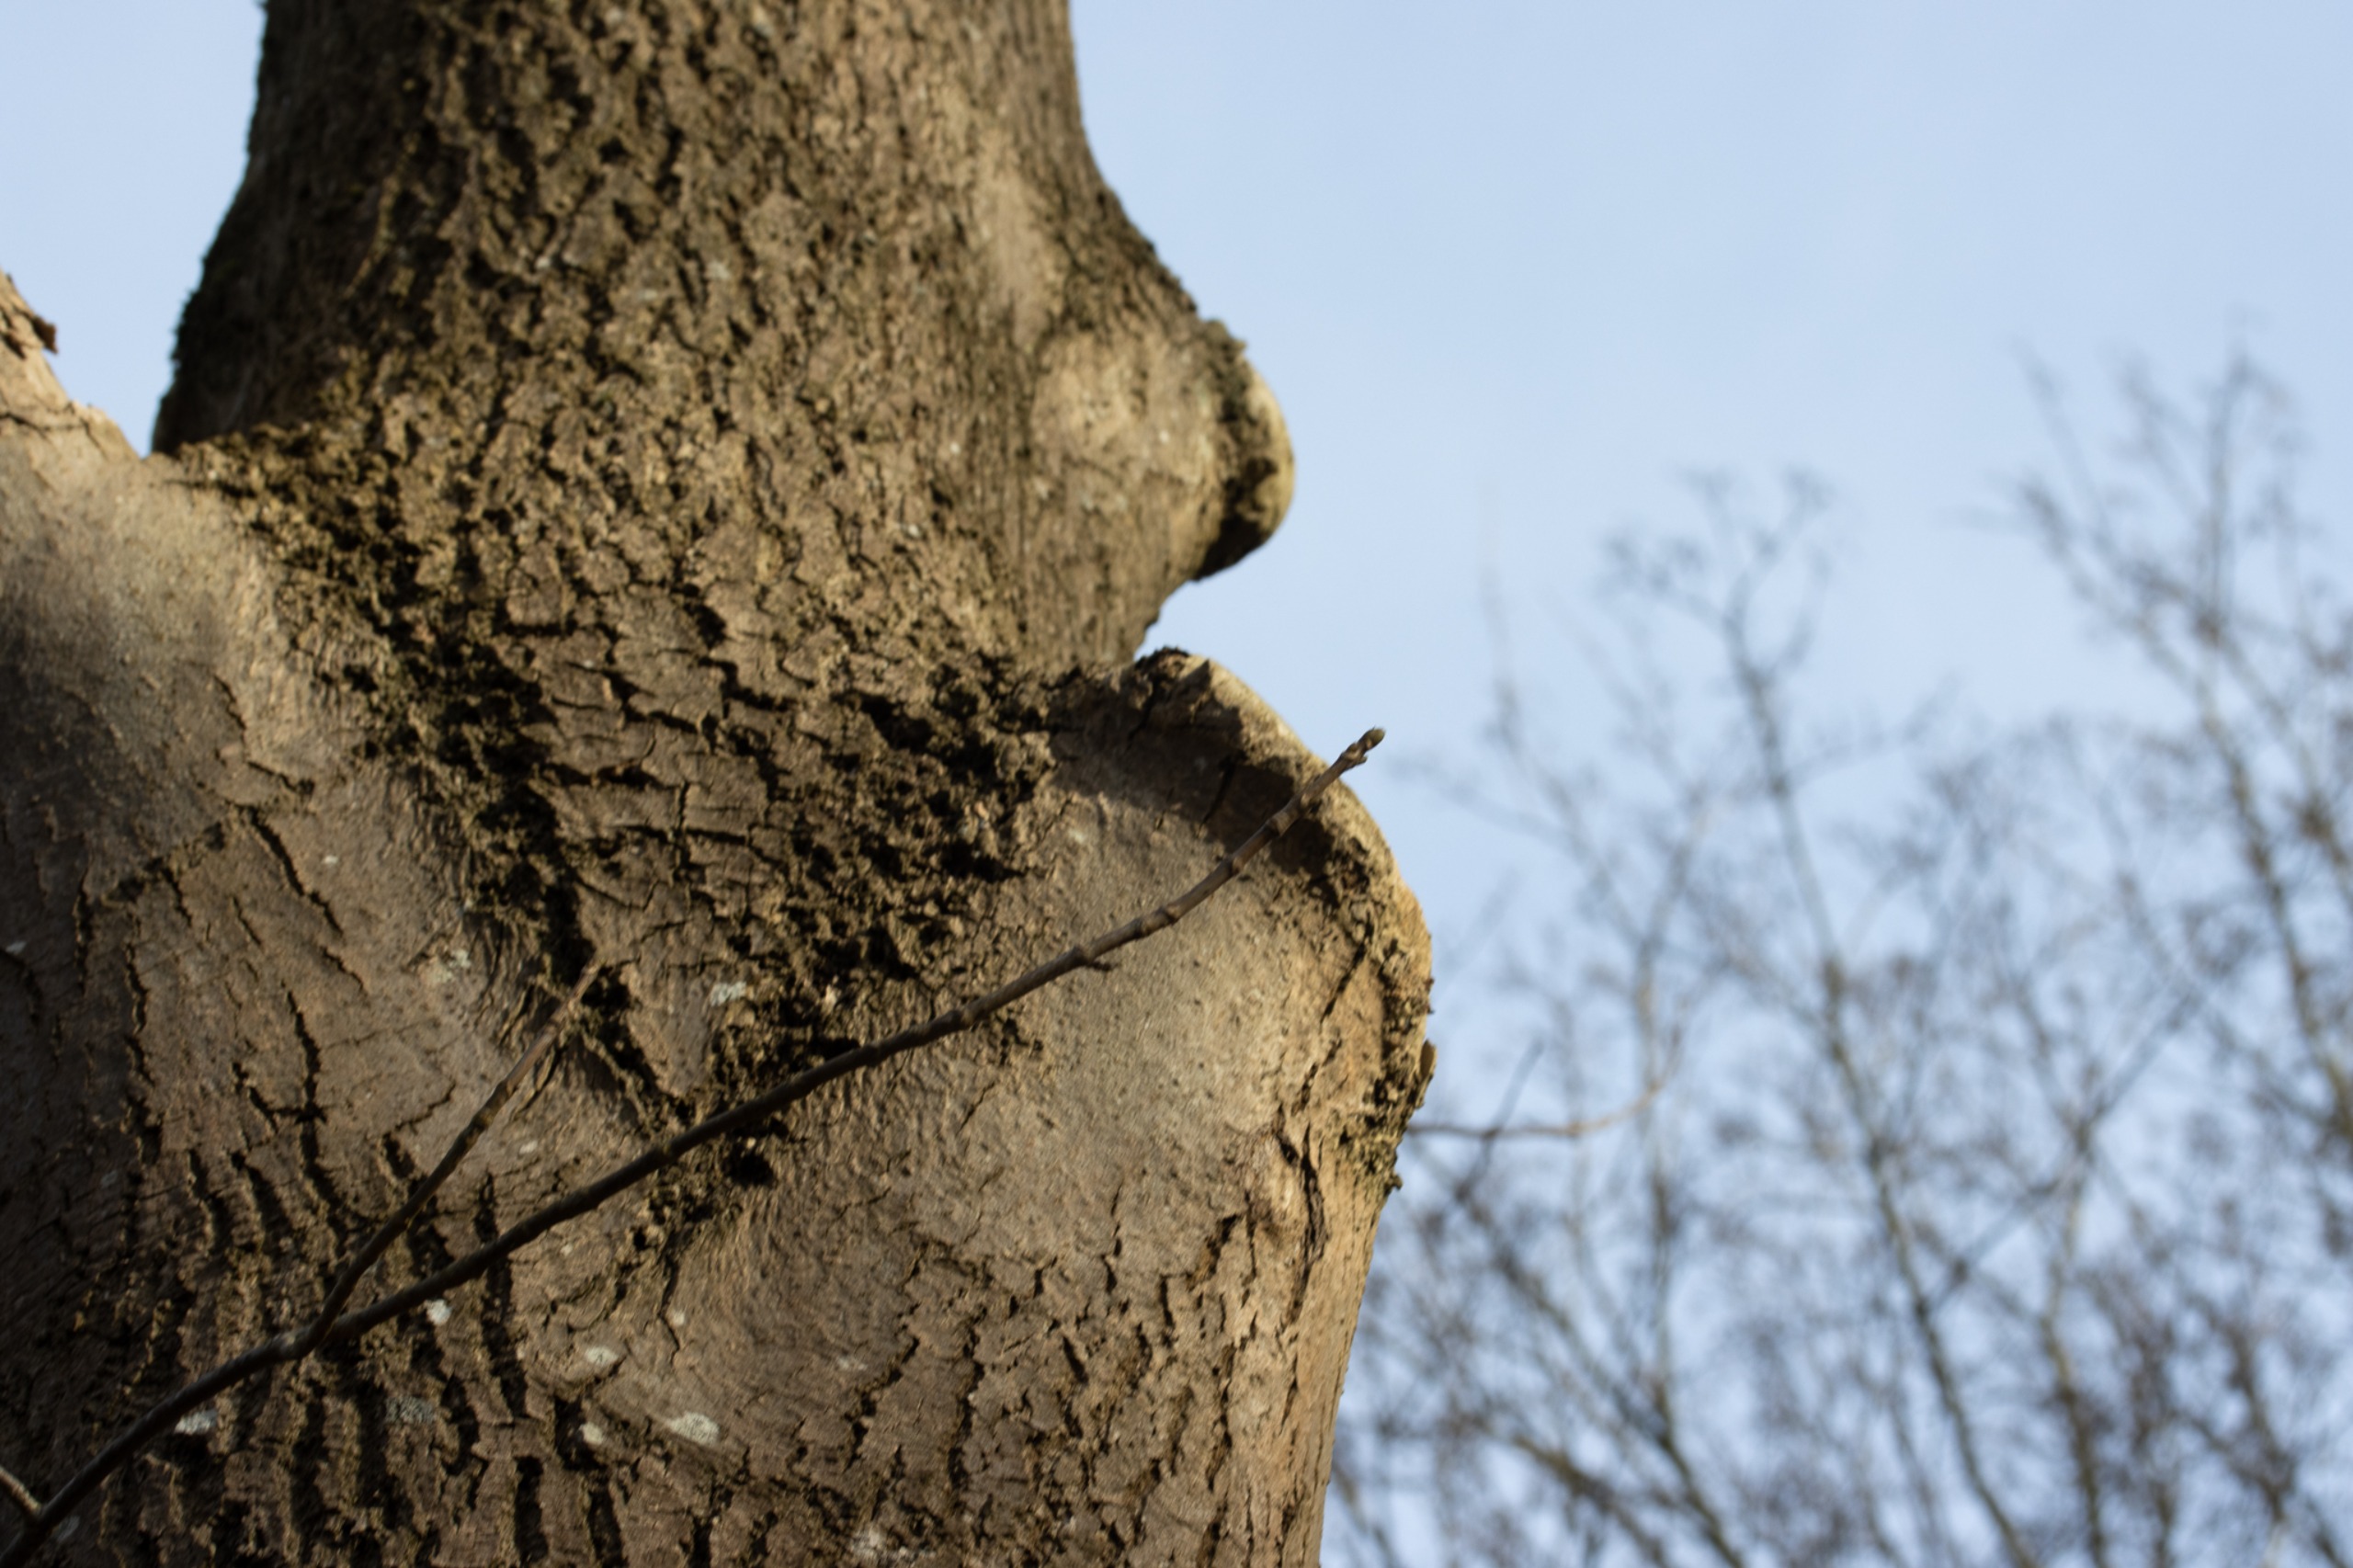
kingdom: Plantae
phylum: Tracheophyta
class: Magnoliopsida
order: Sapindales
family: Sapindaceae
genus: Acer
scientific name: Acer pseudoplatanus
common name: Ahorn
